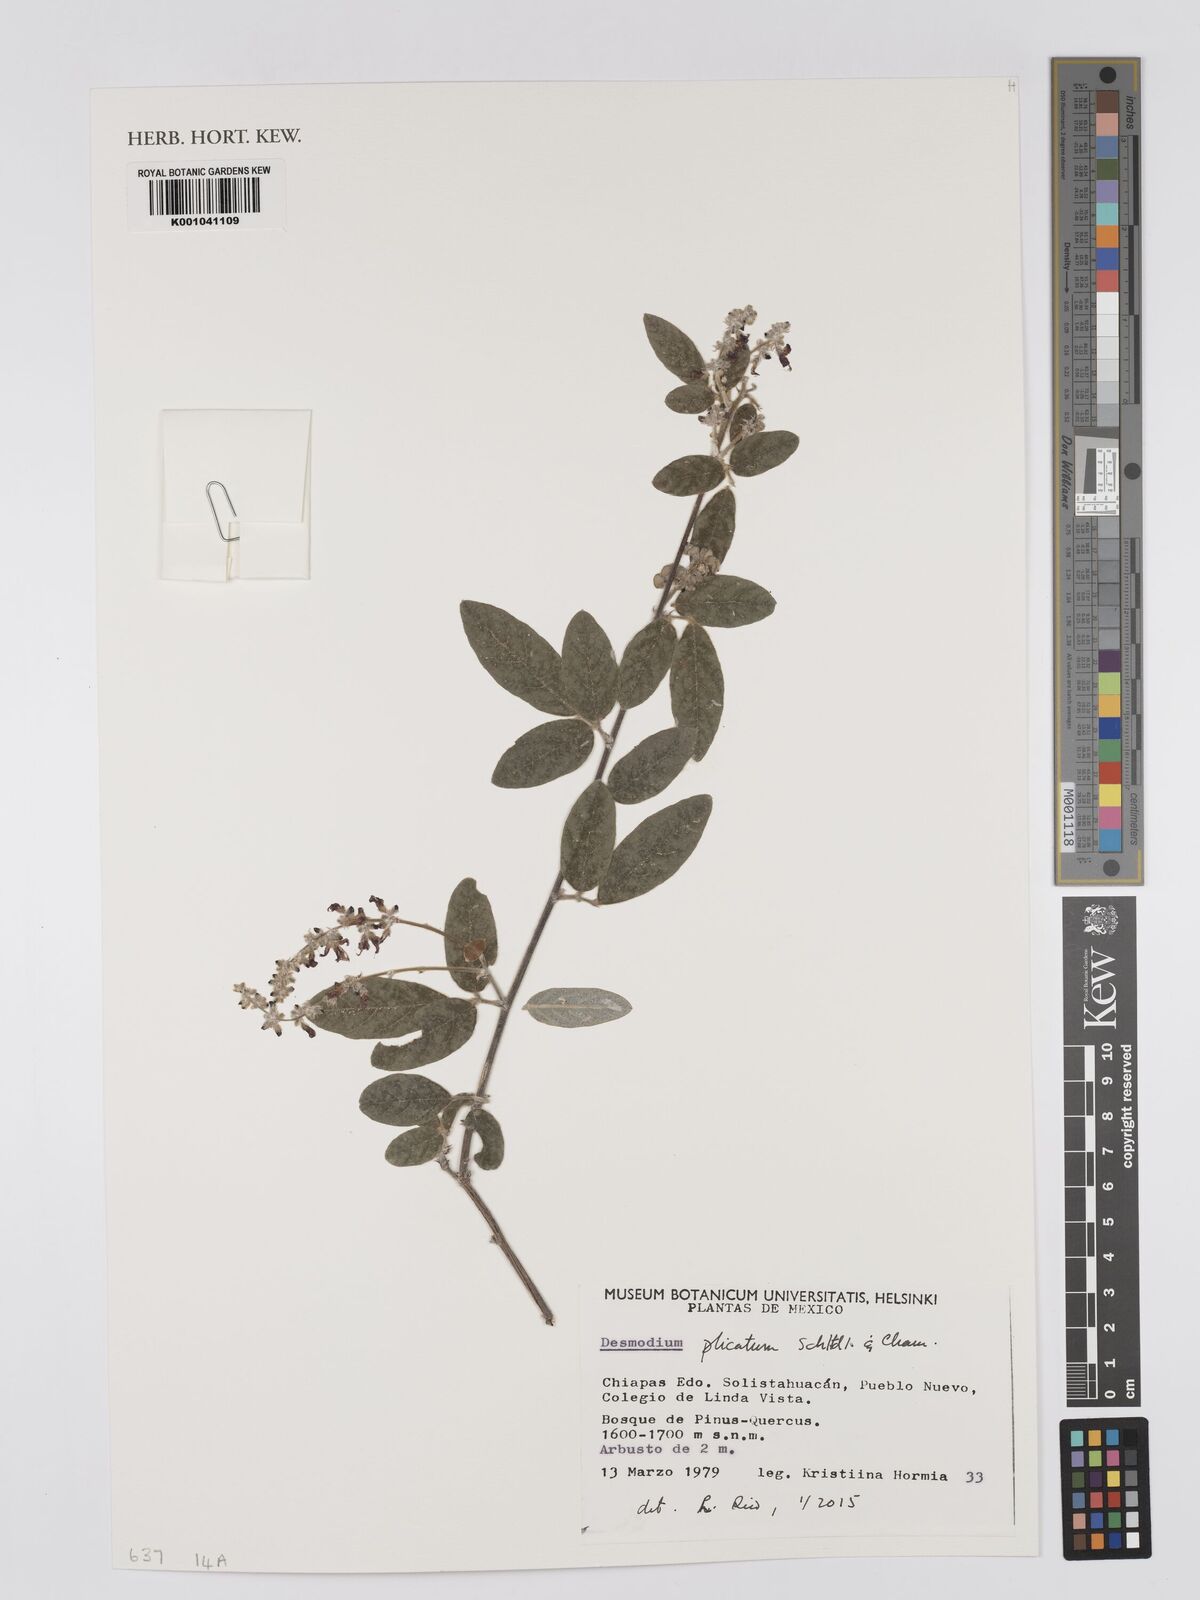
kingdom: Plantae
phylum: Tracheophyta
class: Magnoliopsida
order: Fabales
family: Fabaceae
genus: Desmodium
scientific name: Desmodium plicatum
